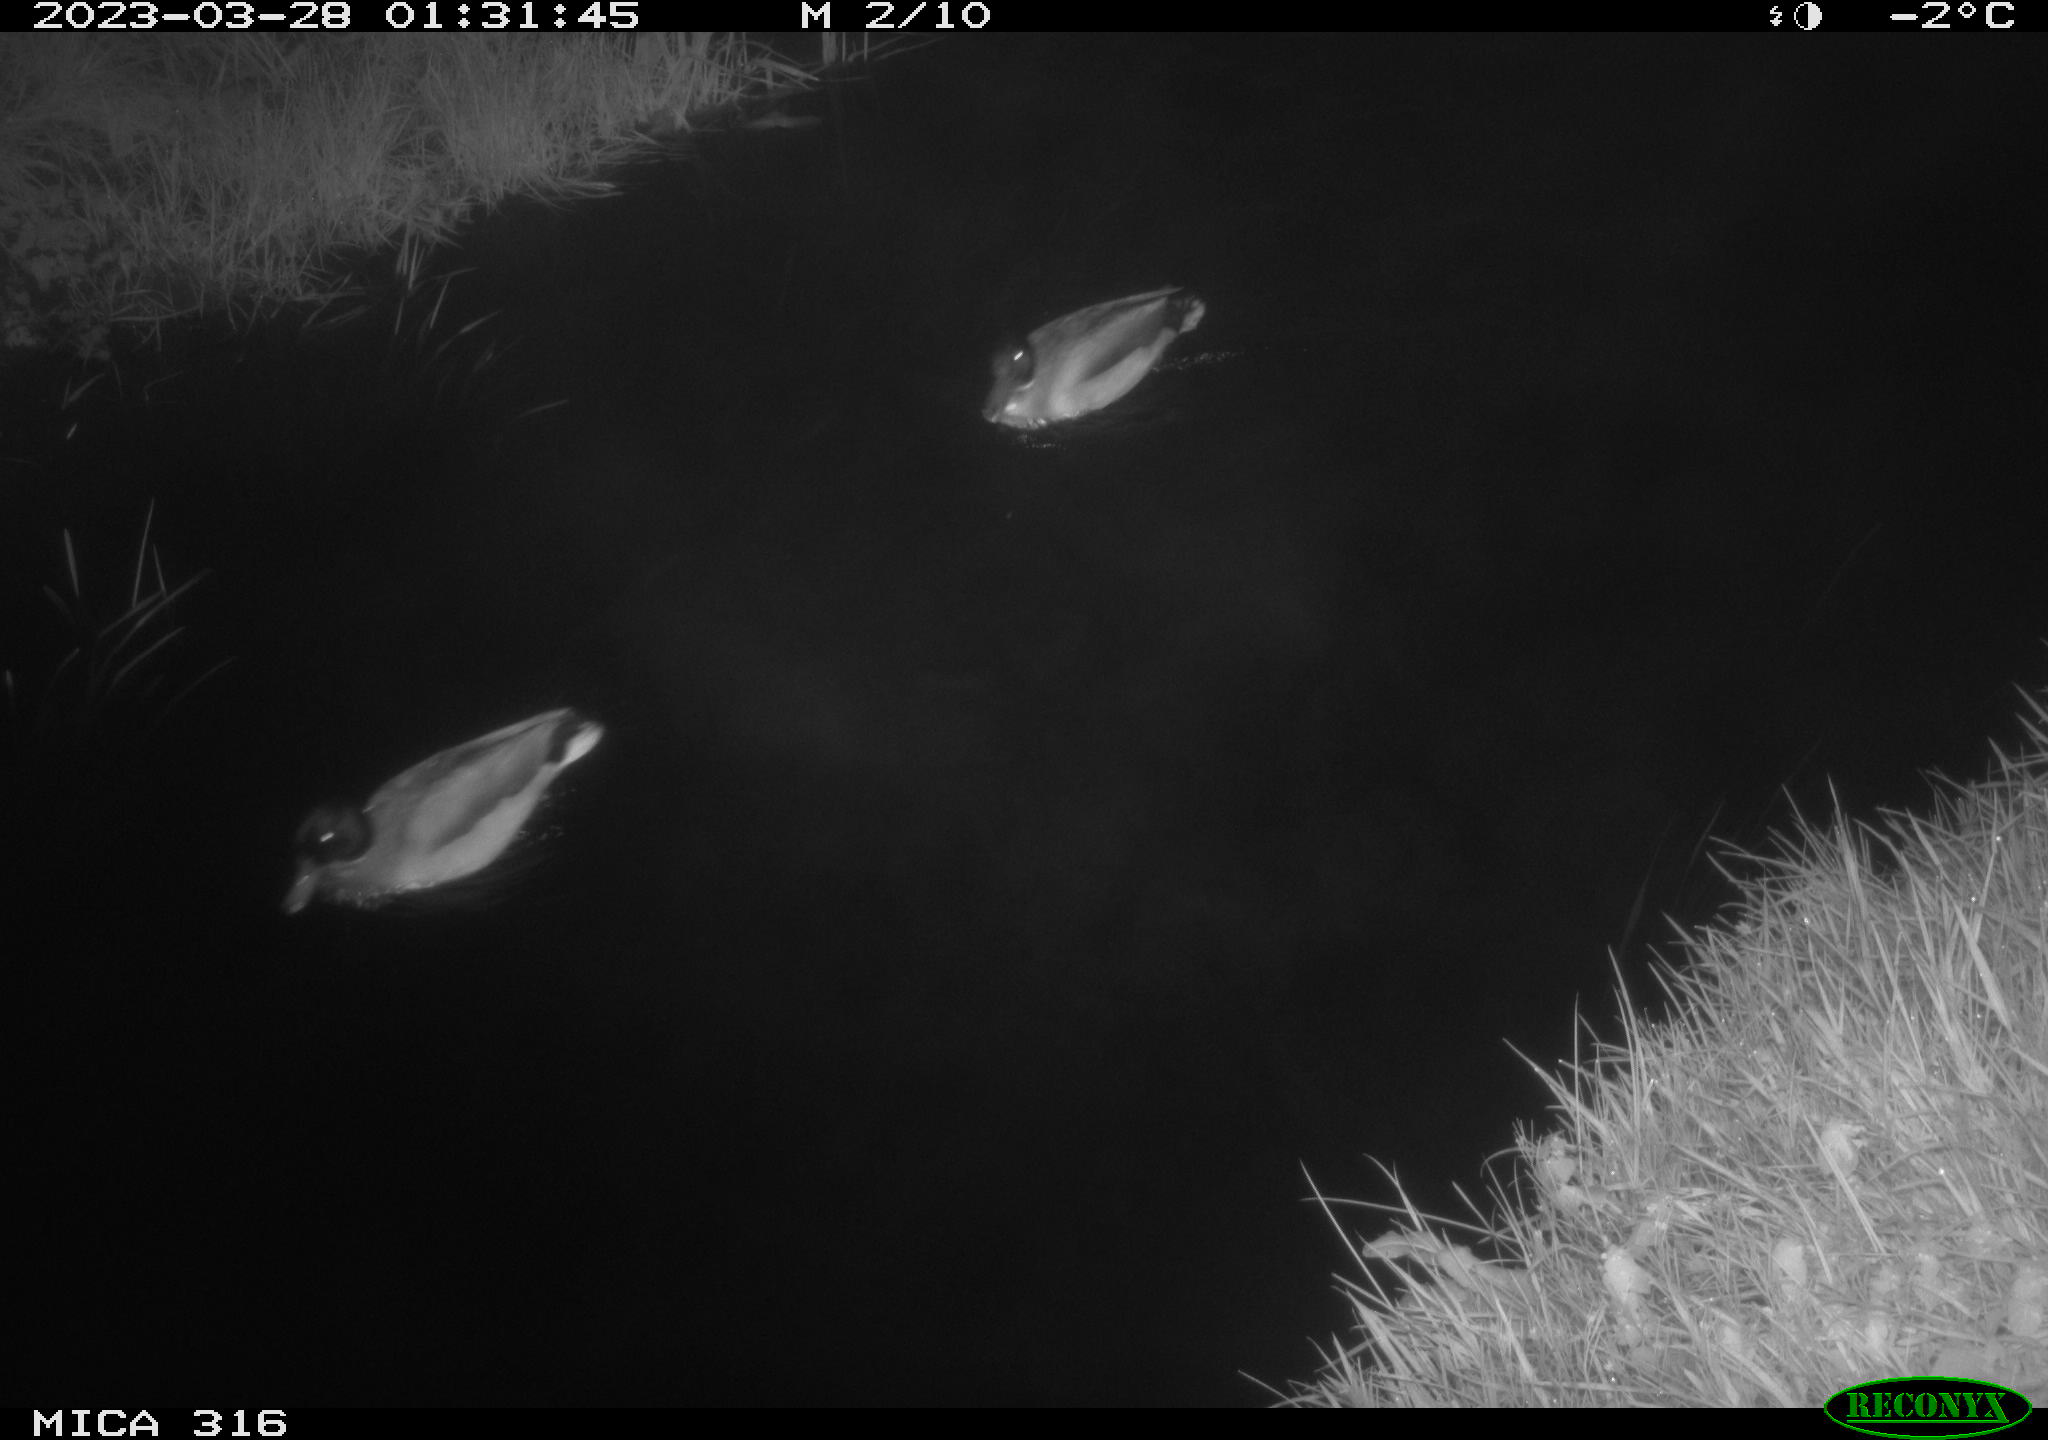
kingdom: Animalia
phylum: Chordata
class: Aves
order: Anseriformes
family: Anatidae
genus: Anas
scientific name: Anas
